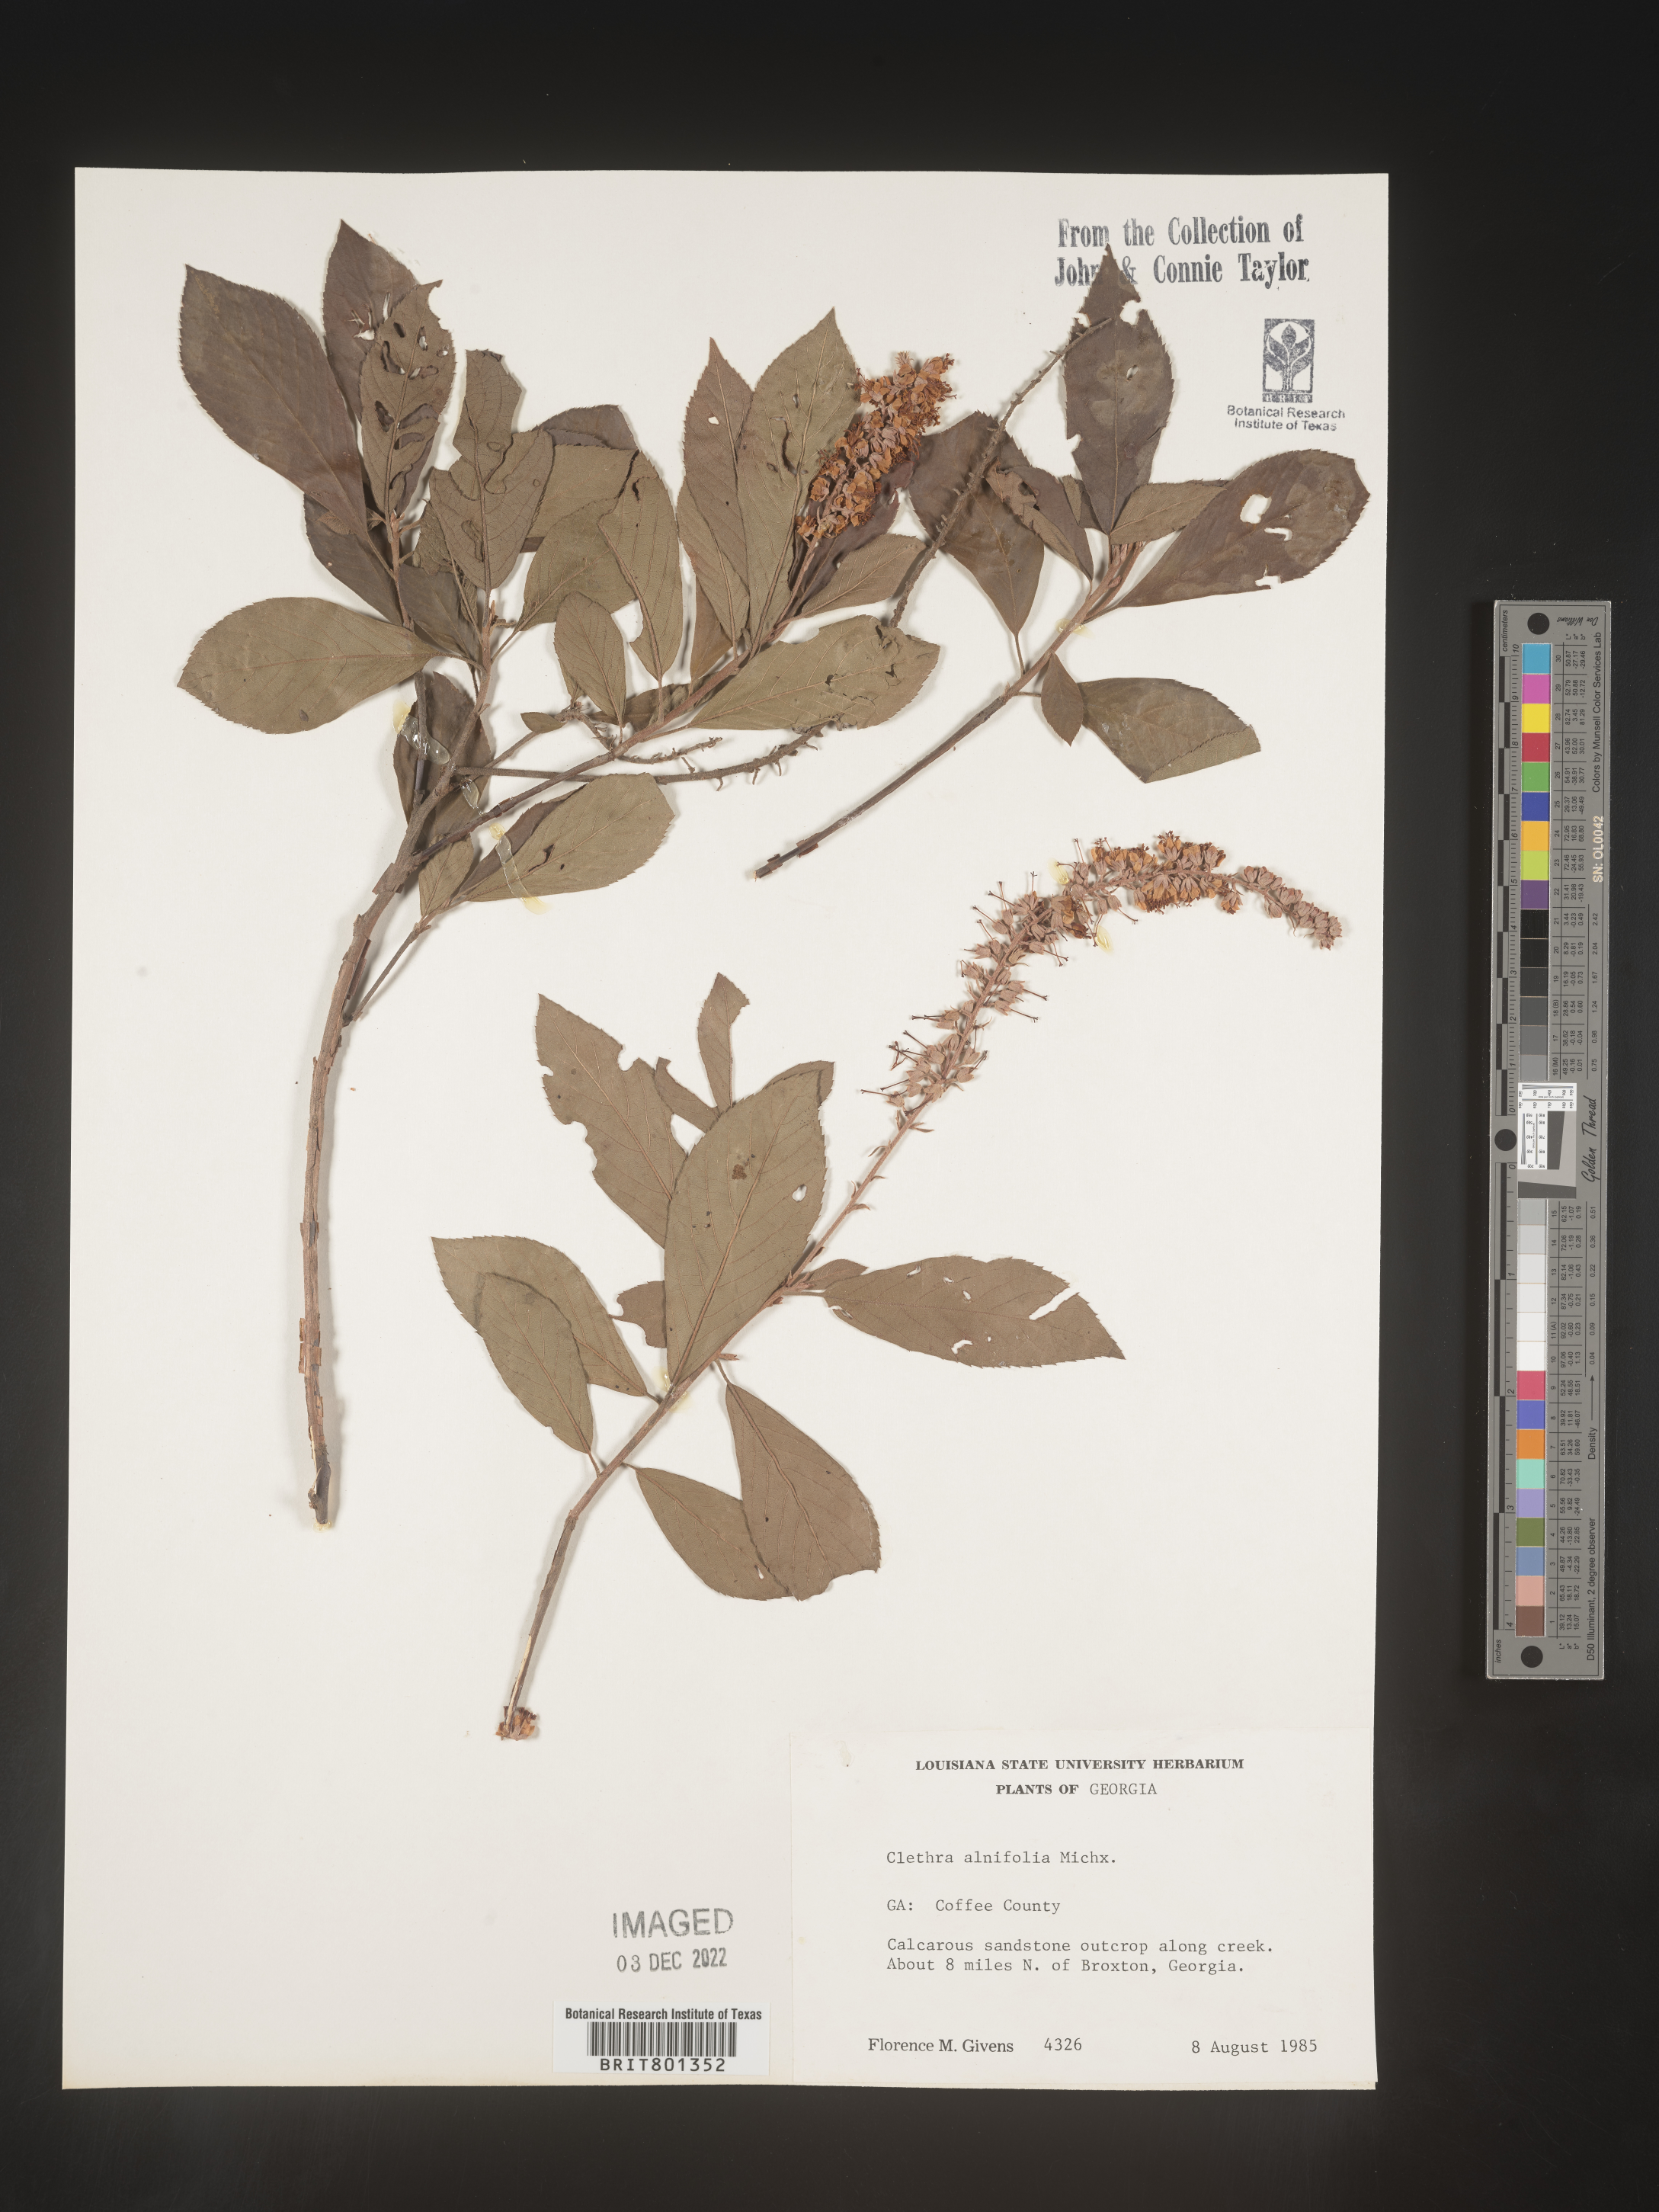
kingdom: Plantae
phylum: Tracheophyta
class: Magnoliopsida
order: Ericales
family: Clethraceae
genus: Clethra
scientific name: Clethra alnifolia
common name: Sweet pepperbush
